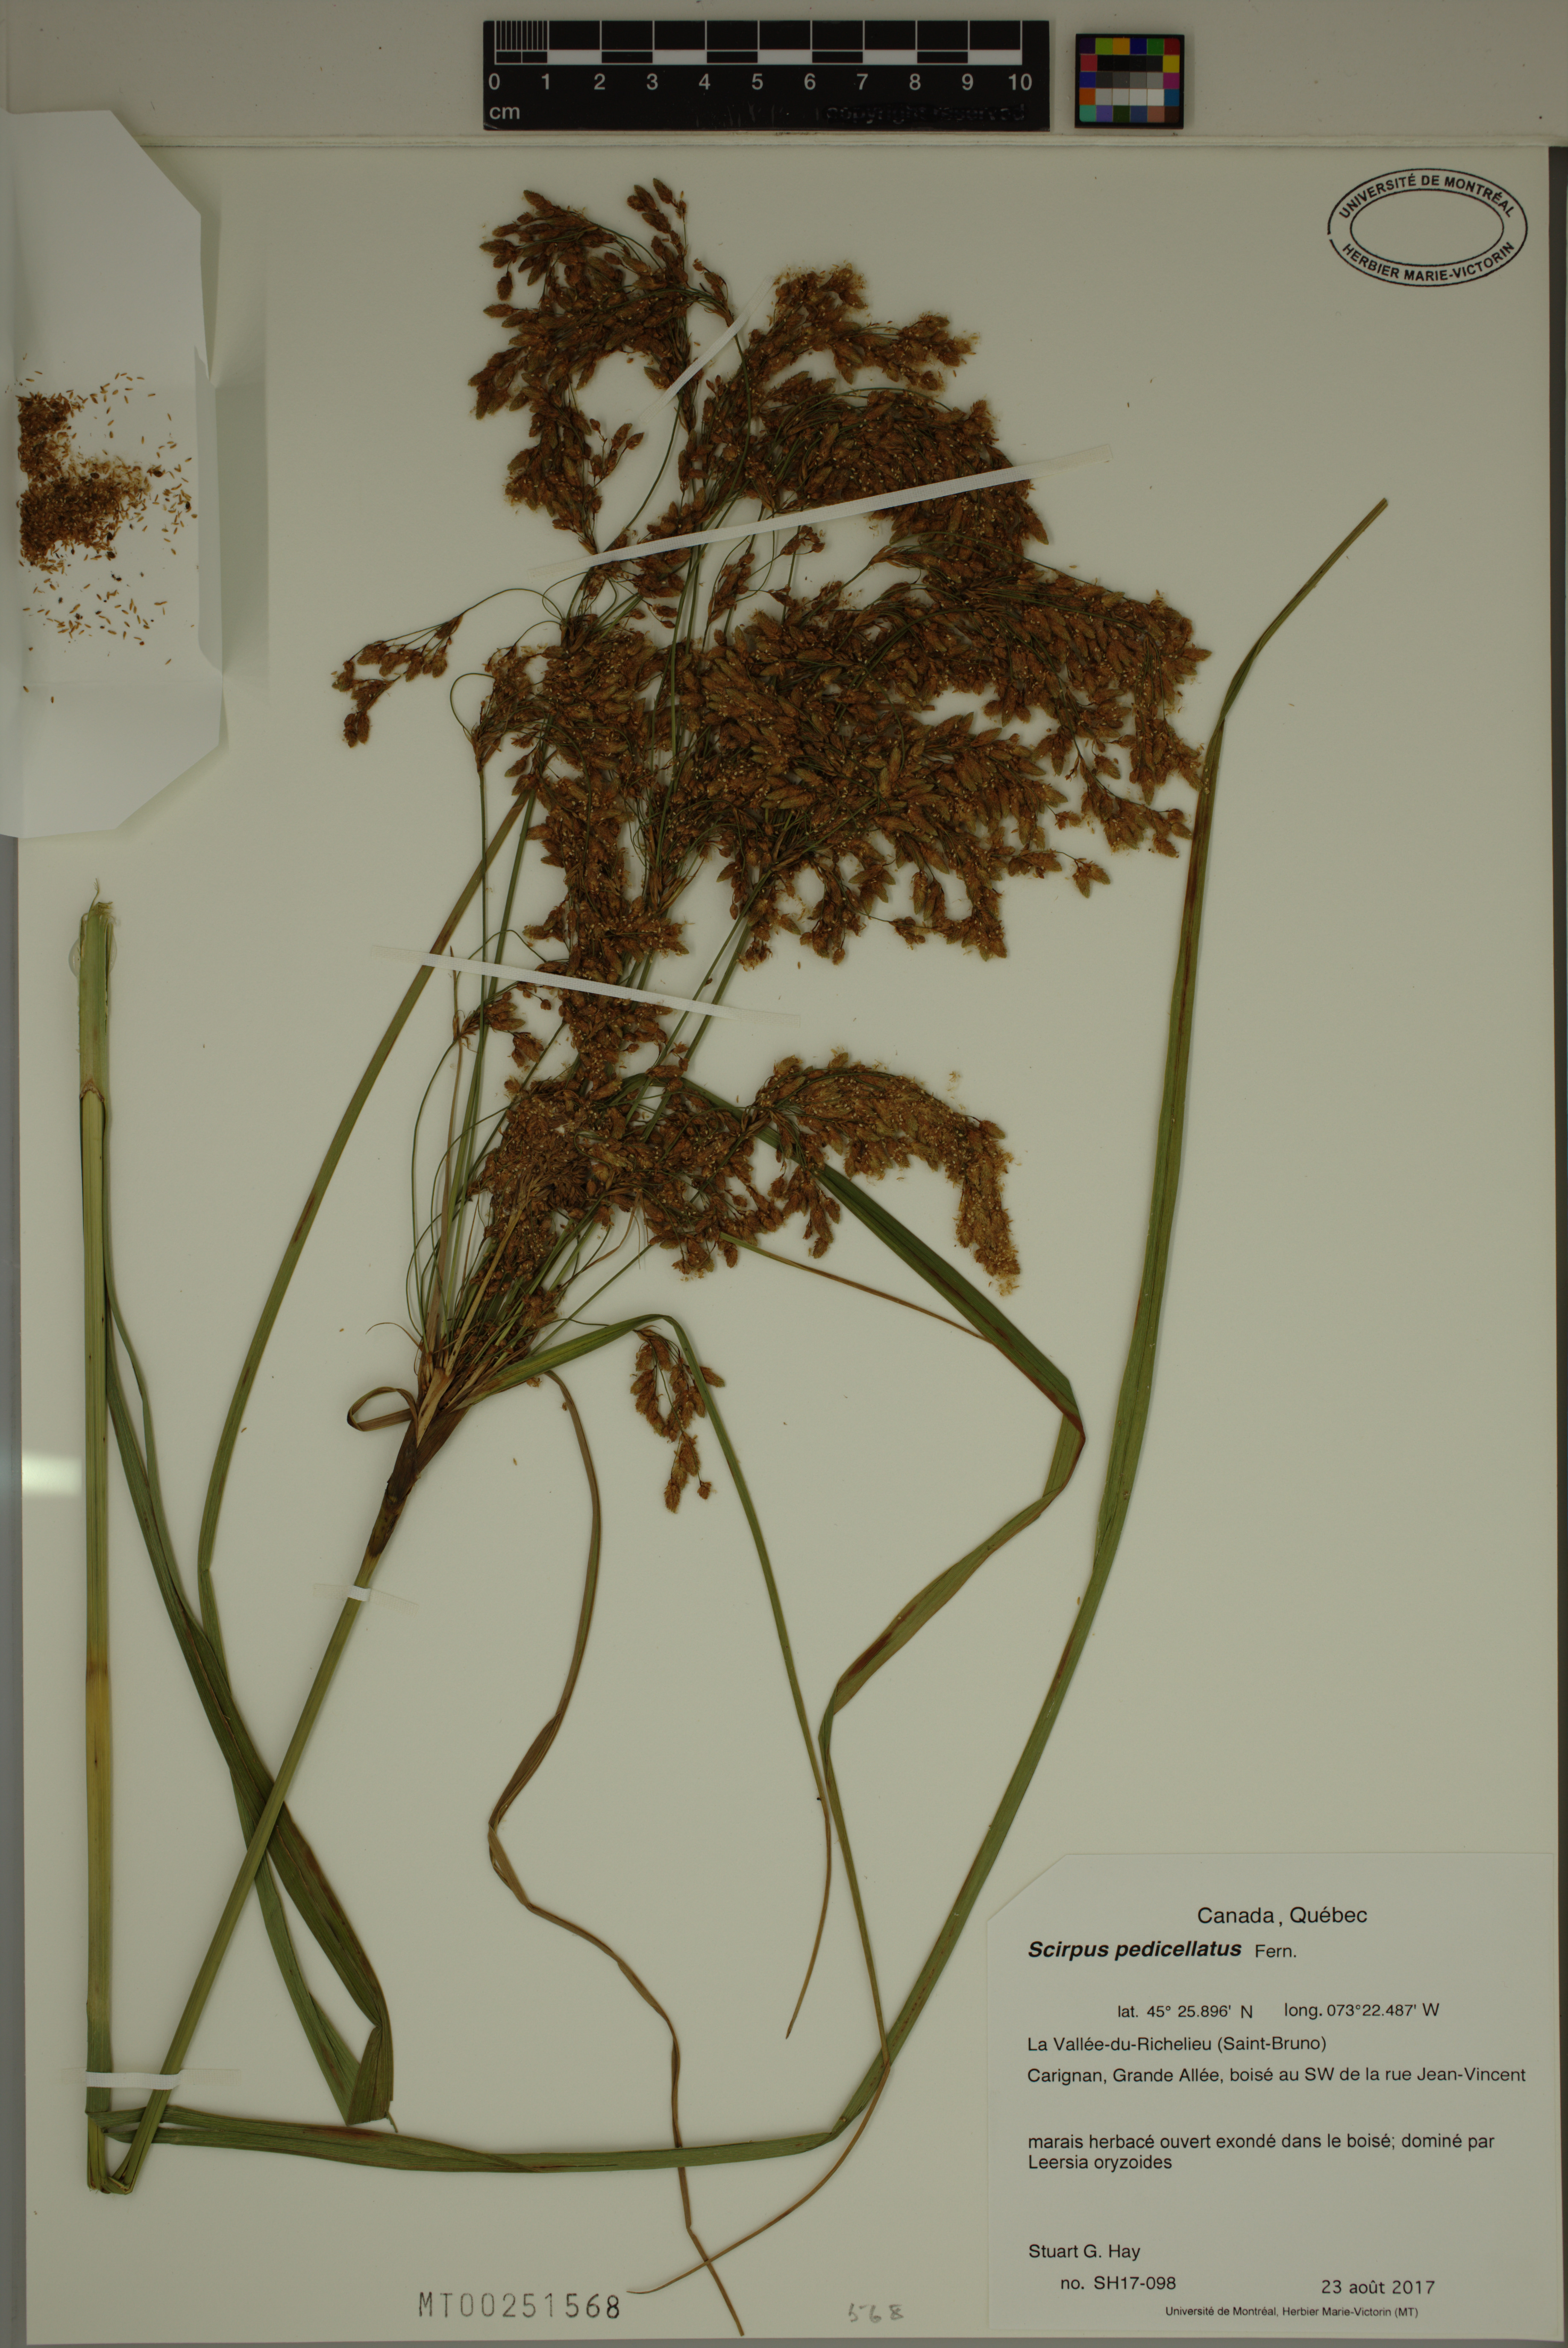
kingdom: Plantae
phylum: Tracheophyta
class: Liliopsida
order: Poales
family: Cyperaceae
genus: Scirpus
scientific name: Scirpus pedicellatus
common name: Pedicelled bulrush
